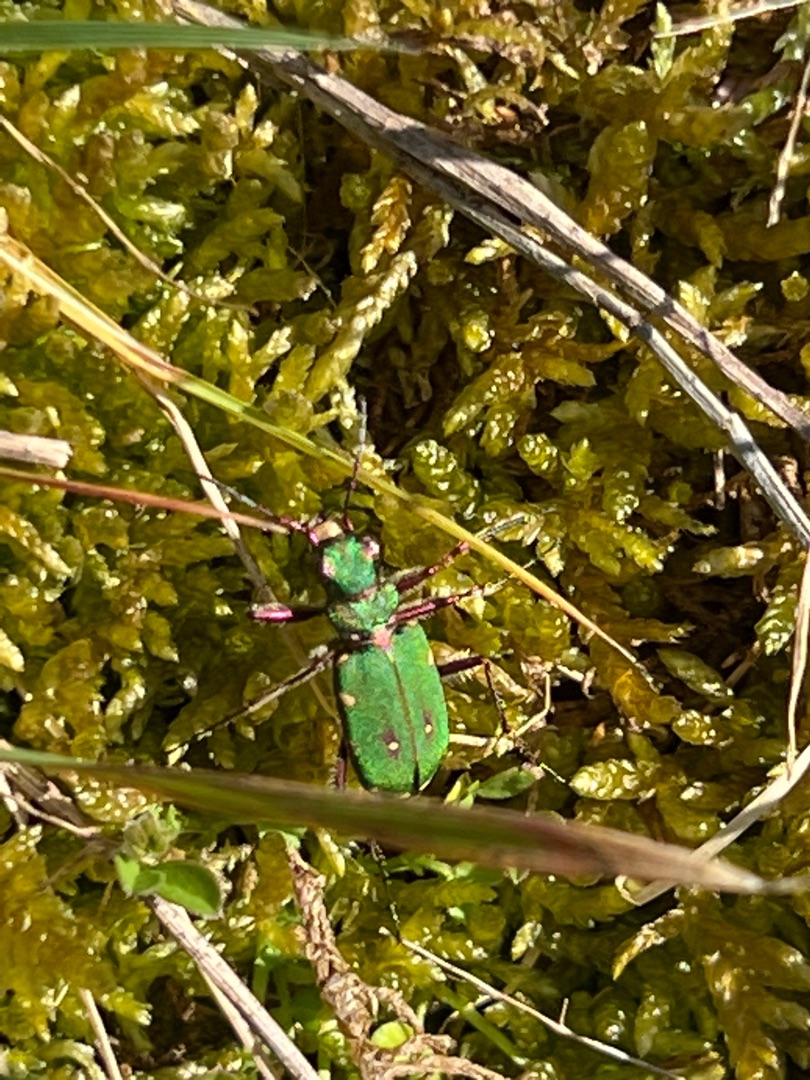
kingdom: Animalia
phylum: Arthropoda
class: Insecta
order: Coleoptera
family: Carabidae
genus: Cicindela
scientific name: Cicindela campestris
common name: Grøn sandspringer
